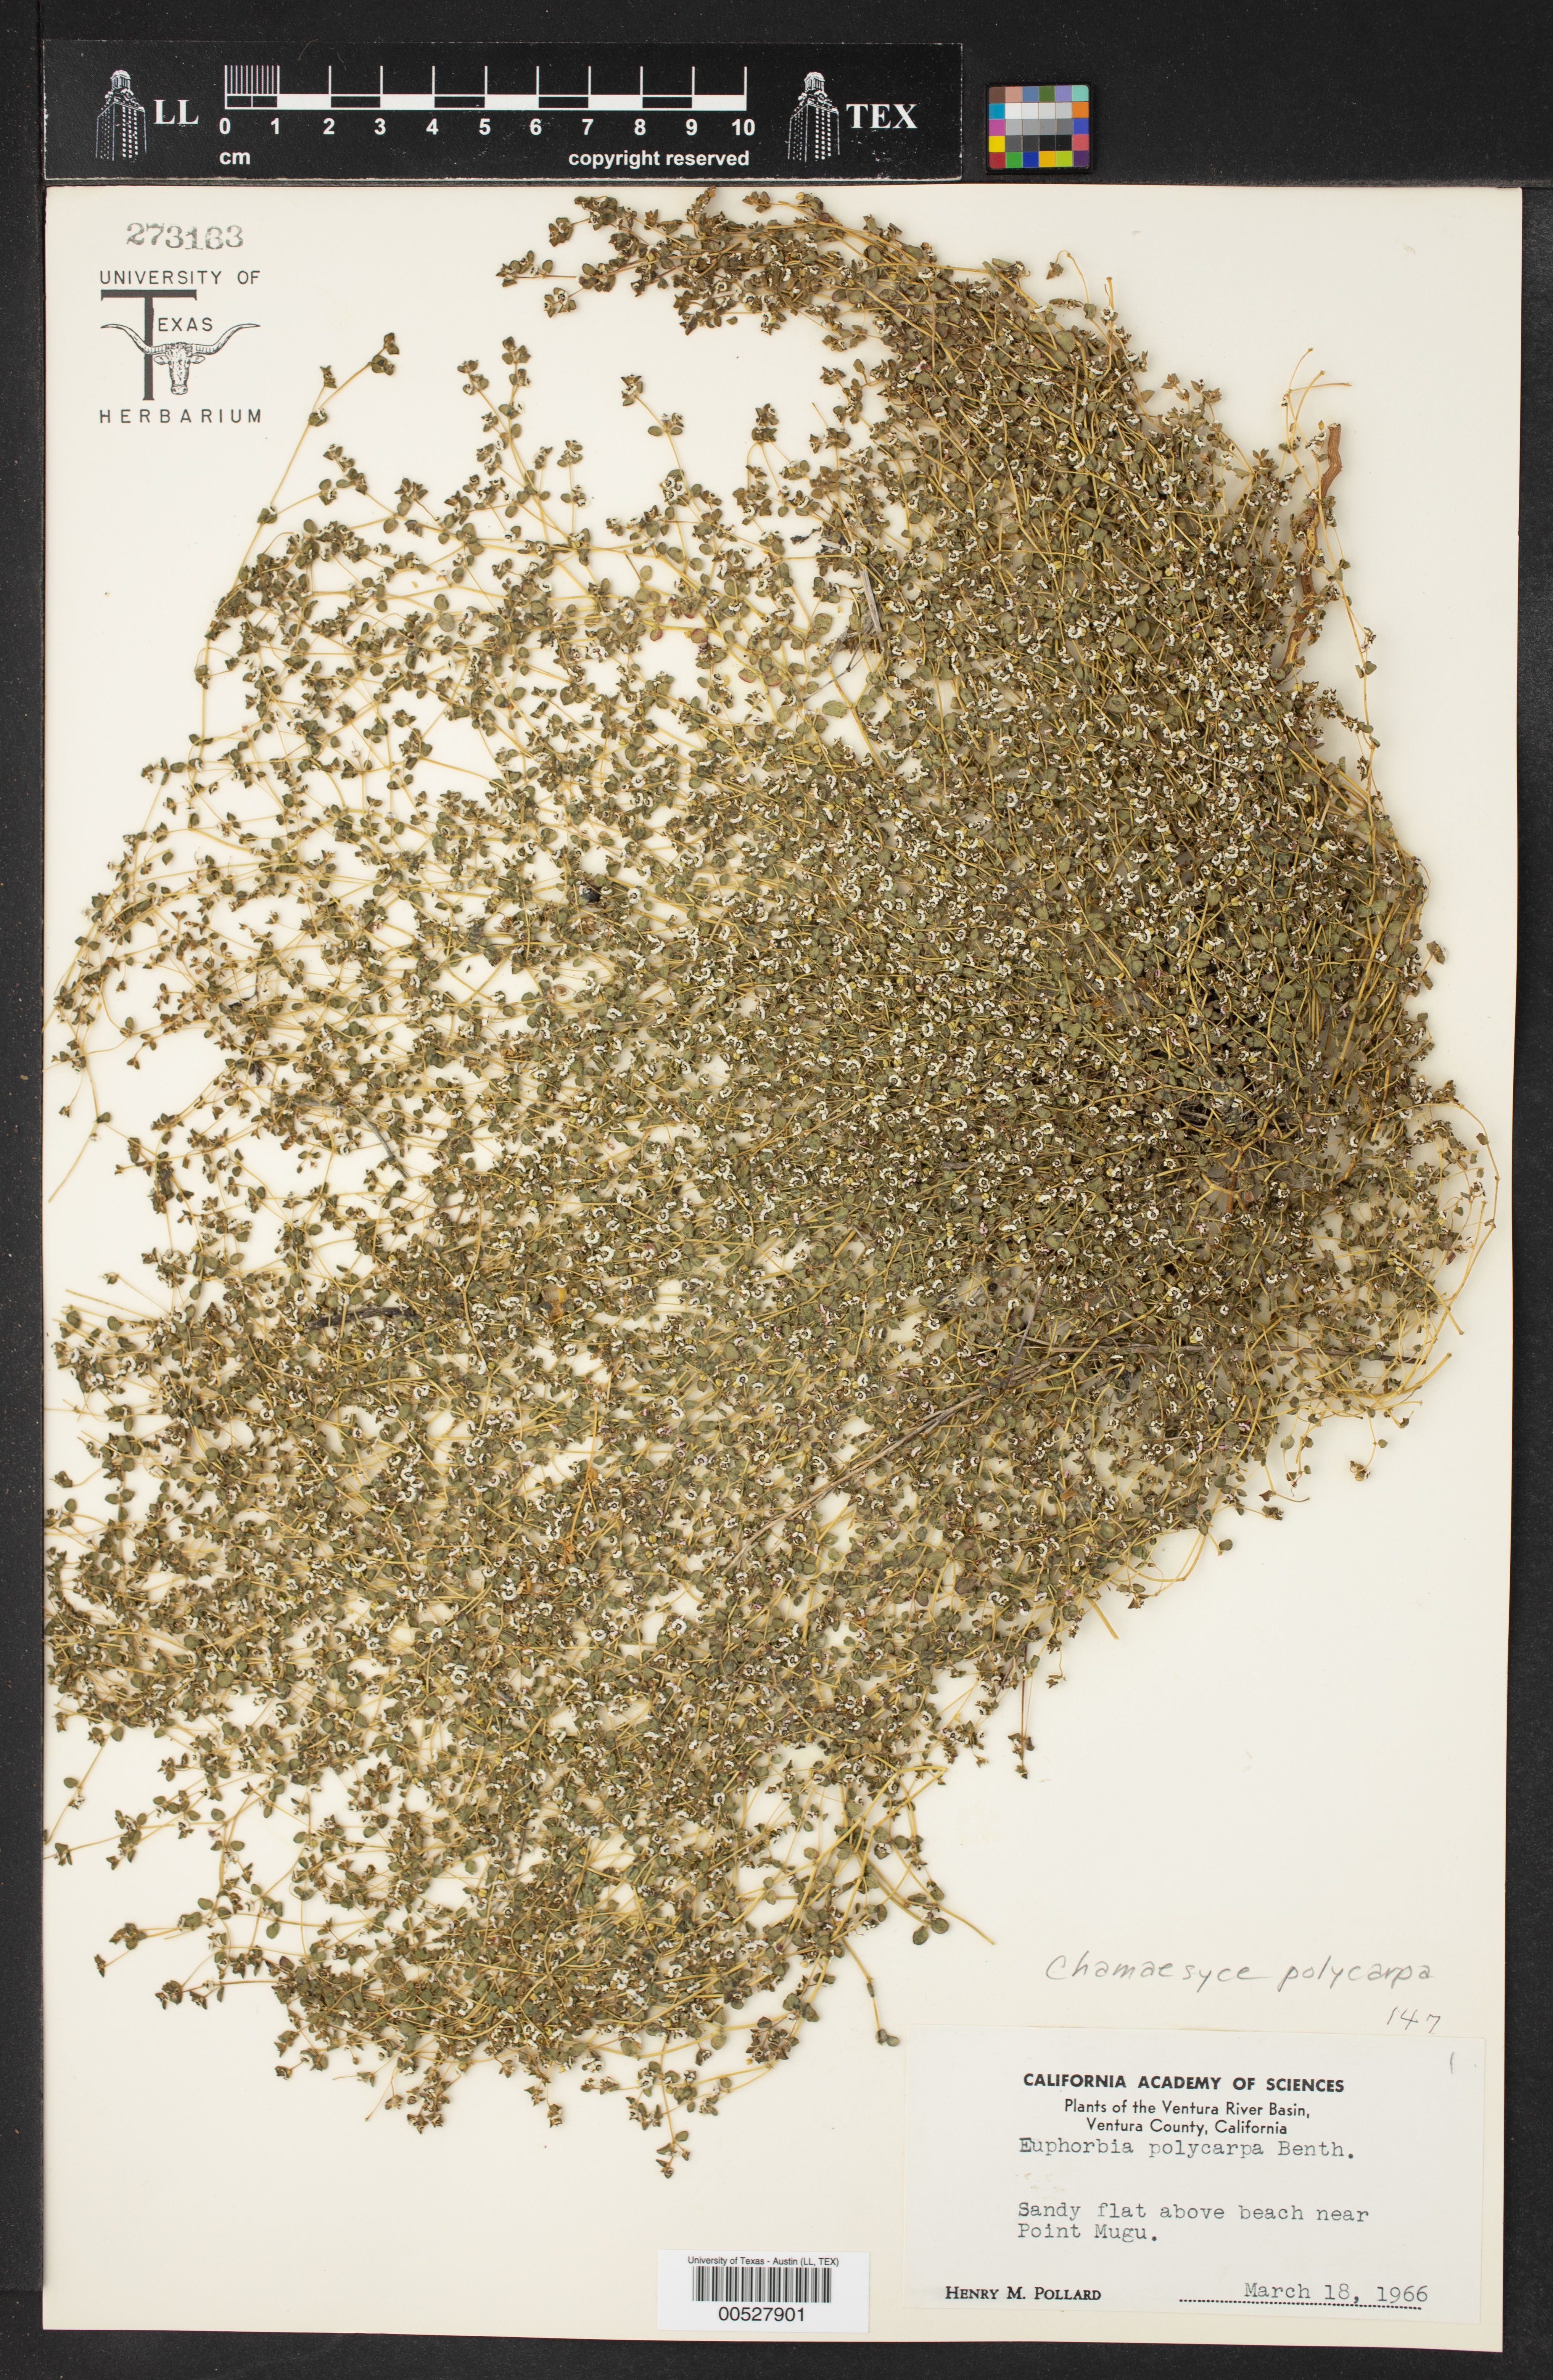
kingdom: Plantae
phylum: Tracheophyta
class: Magnoliopsida
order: Malpighiales
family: Euphorbiaceae
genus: Euphorbia
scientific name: Euphorbia polycarpa
